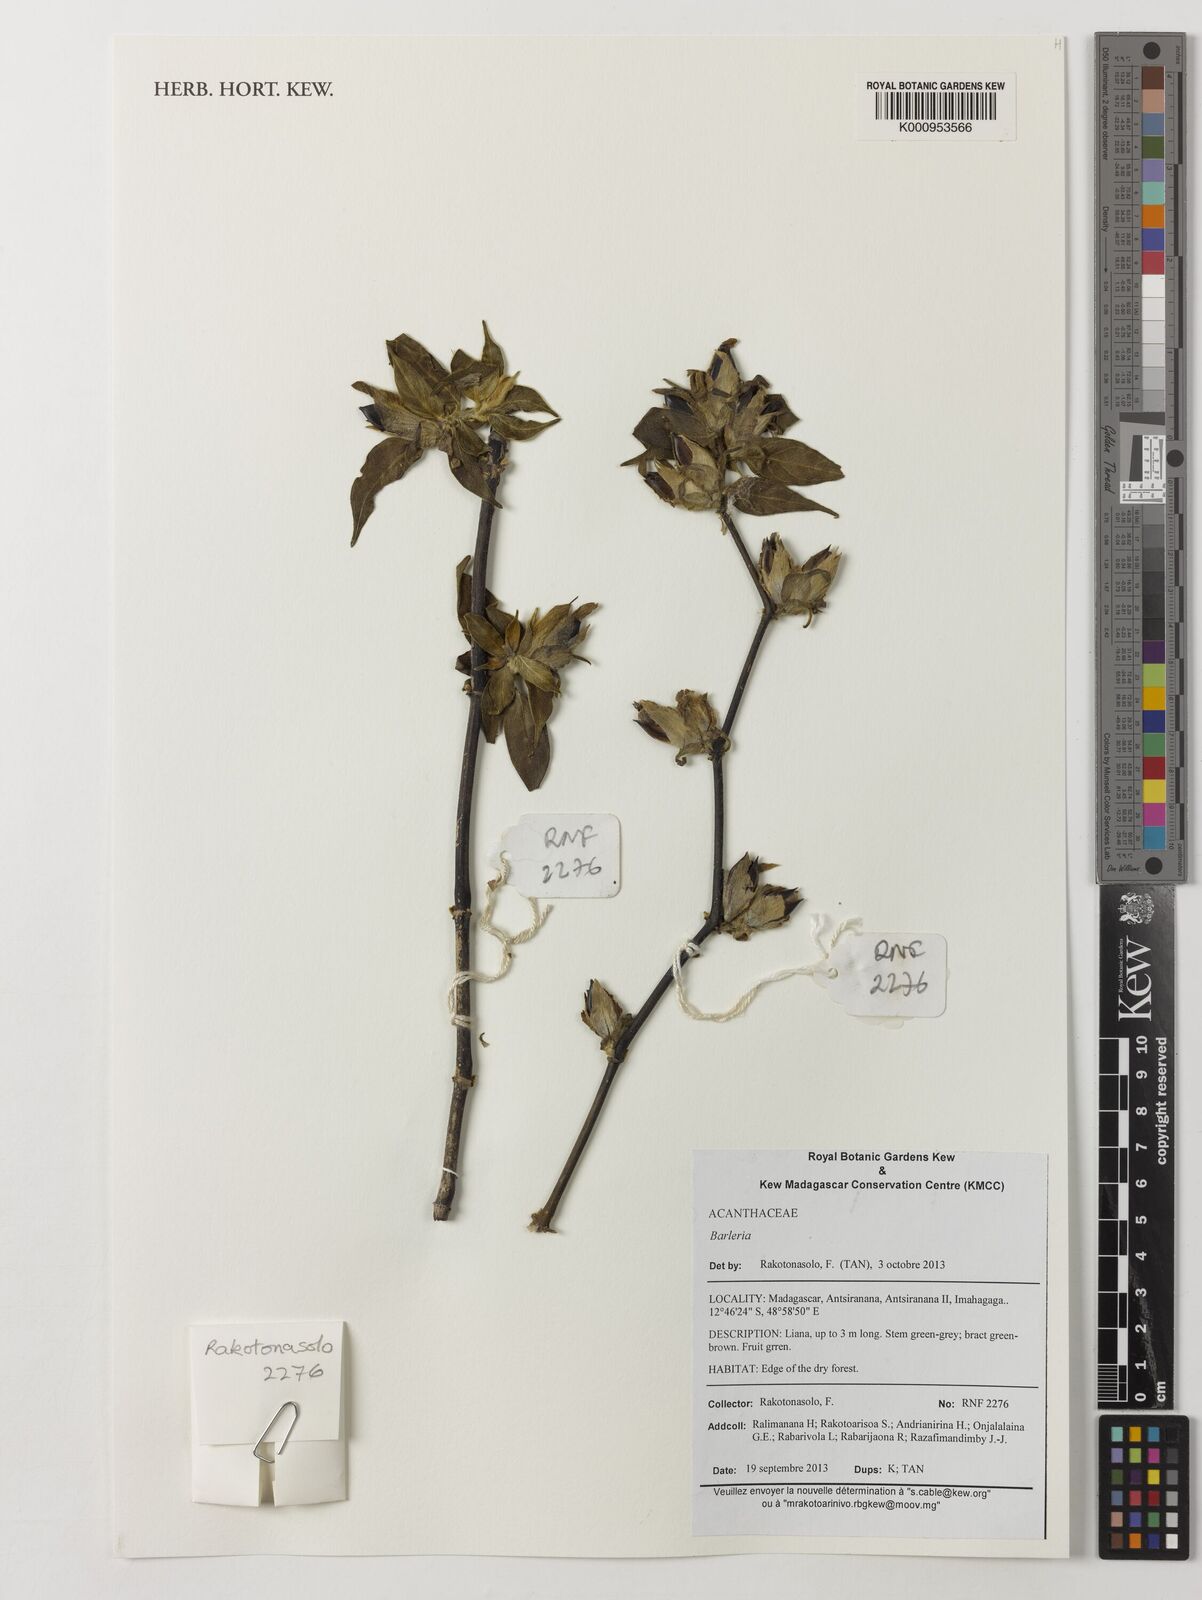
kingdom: Plantae
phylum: Tracheophyta
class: Magnoliopsida
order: Lamiales
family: Acanthaceae
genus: Barleria
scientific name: Barleria
